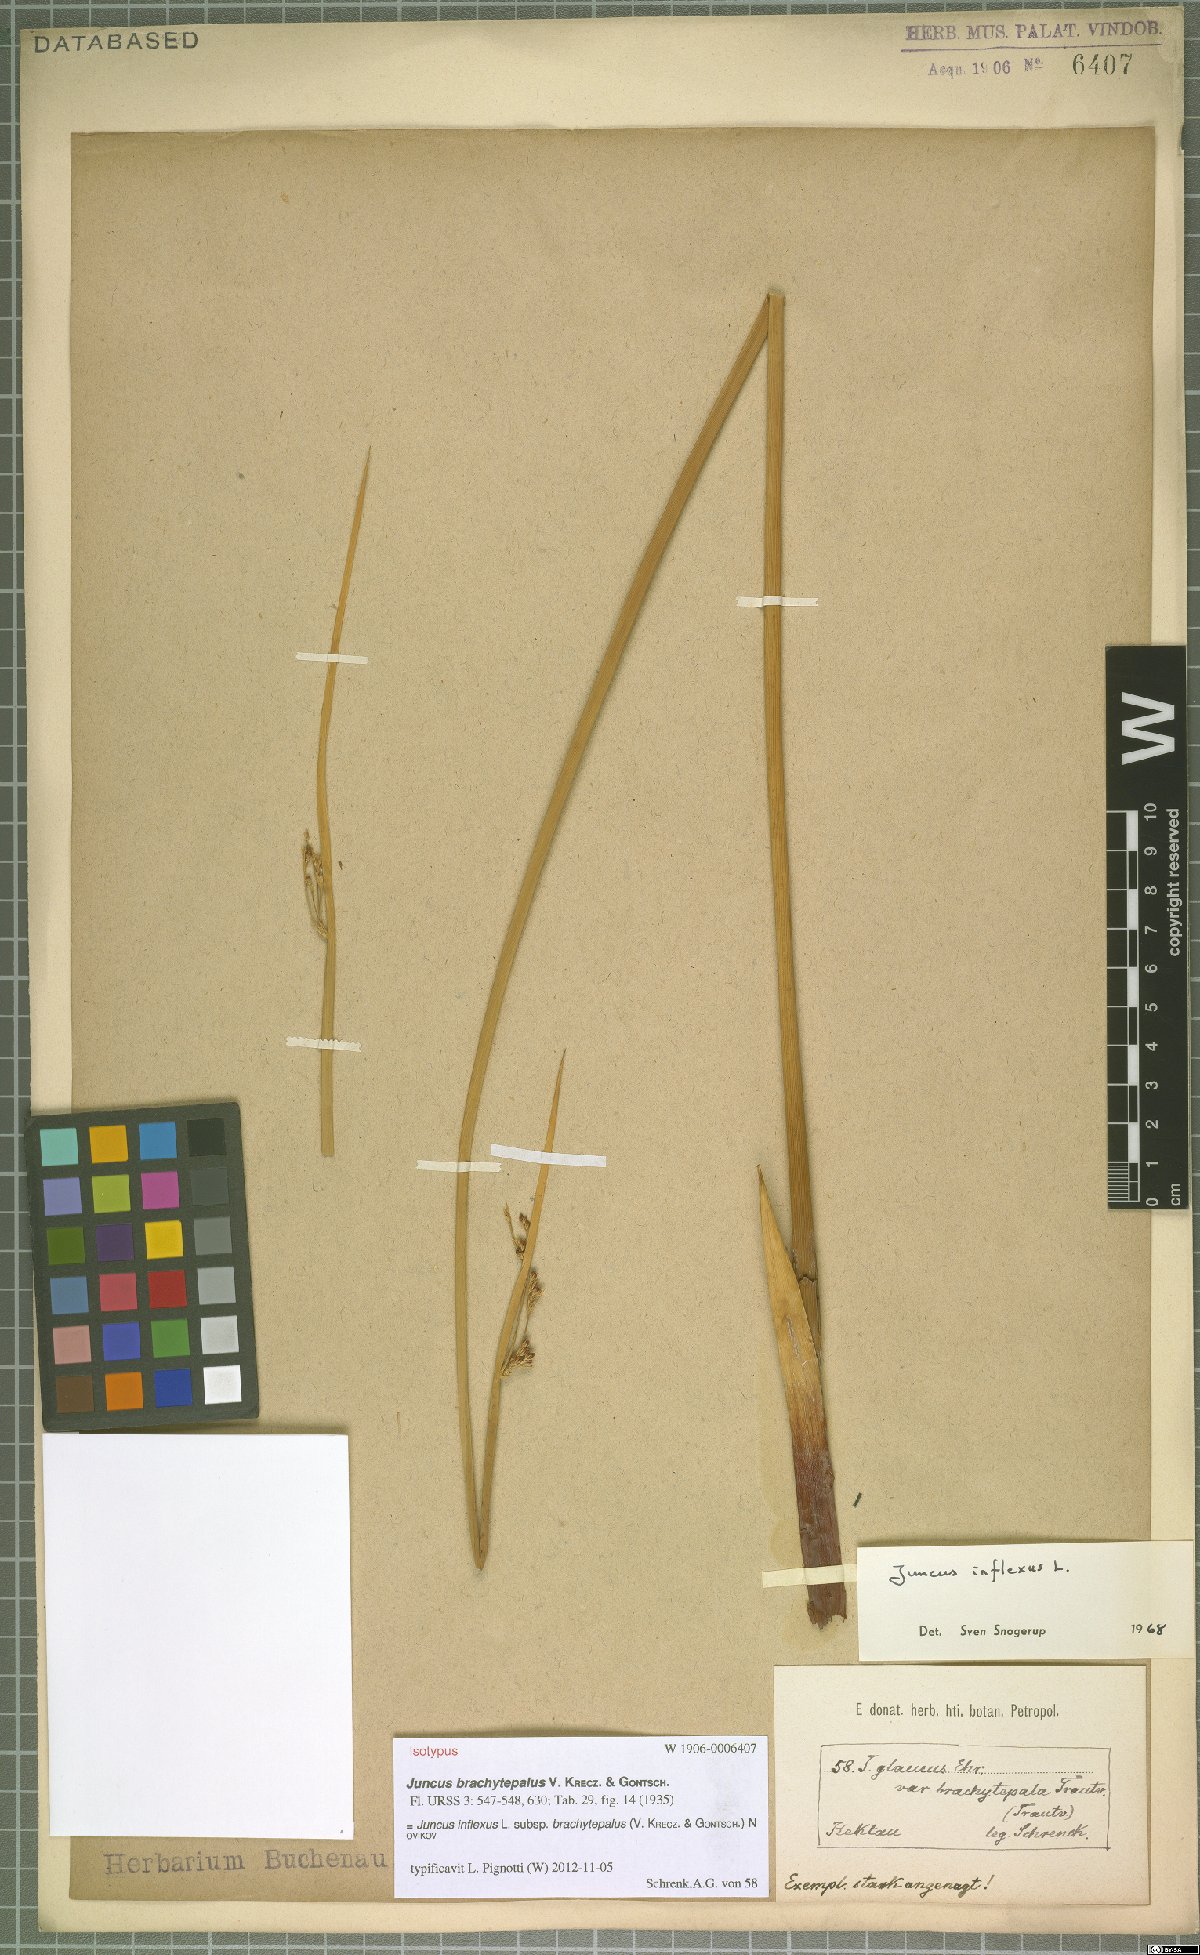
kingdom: Plantae
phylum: Tracheophyta
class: Liliopsida
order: Poales
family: Juncaceae
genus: Juncus
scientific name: Juncus inflexus
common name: Hard rush
